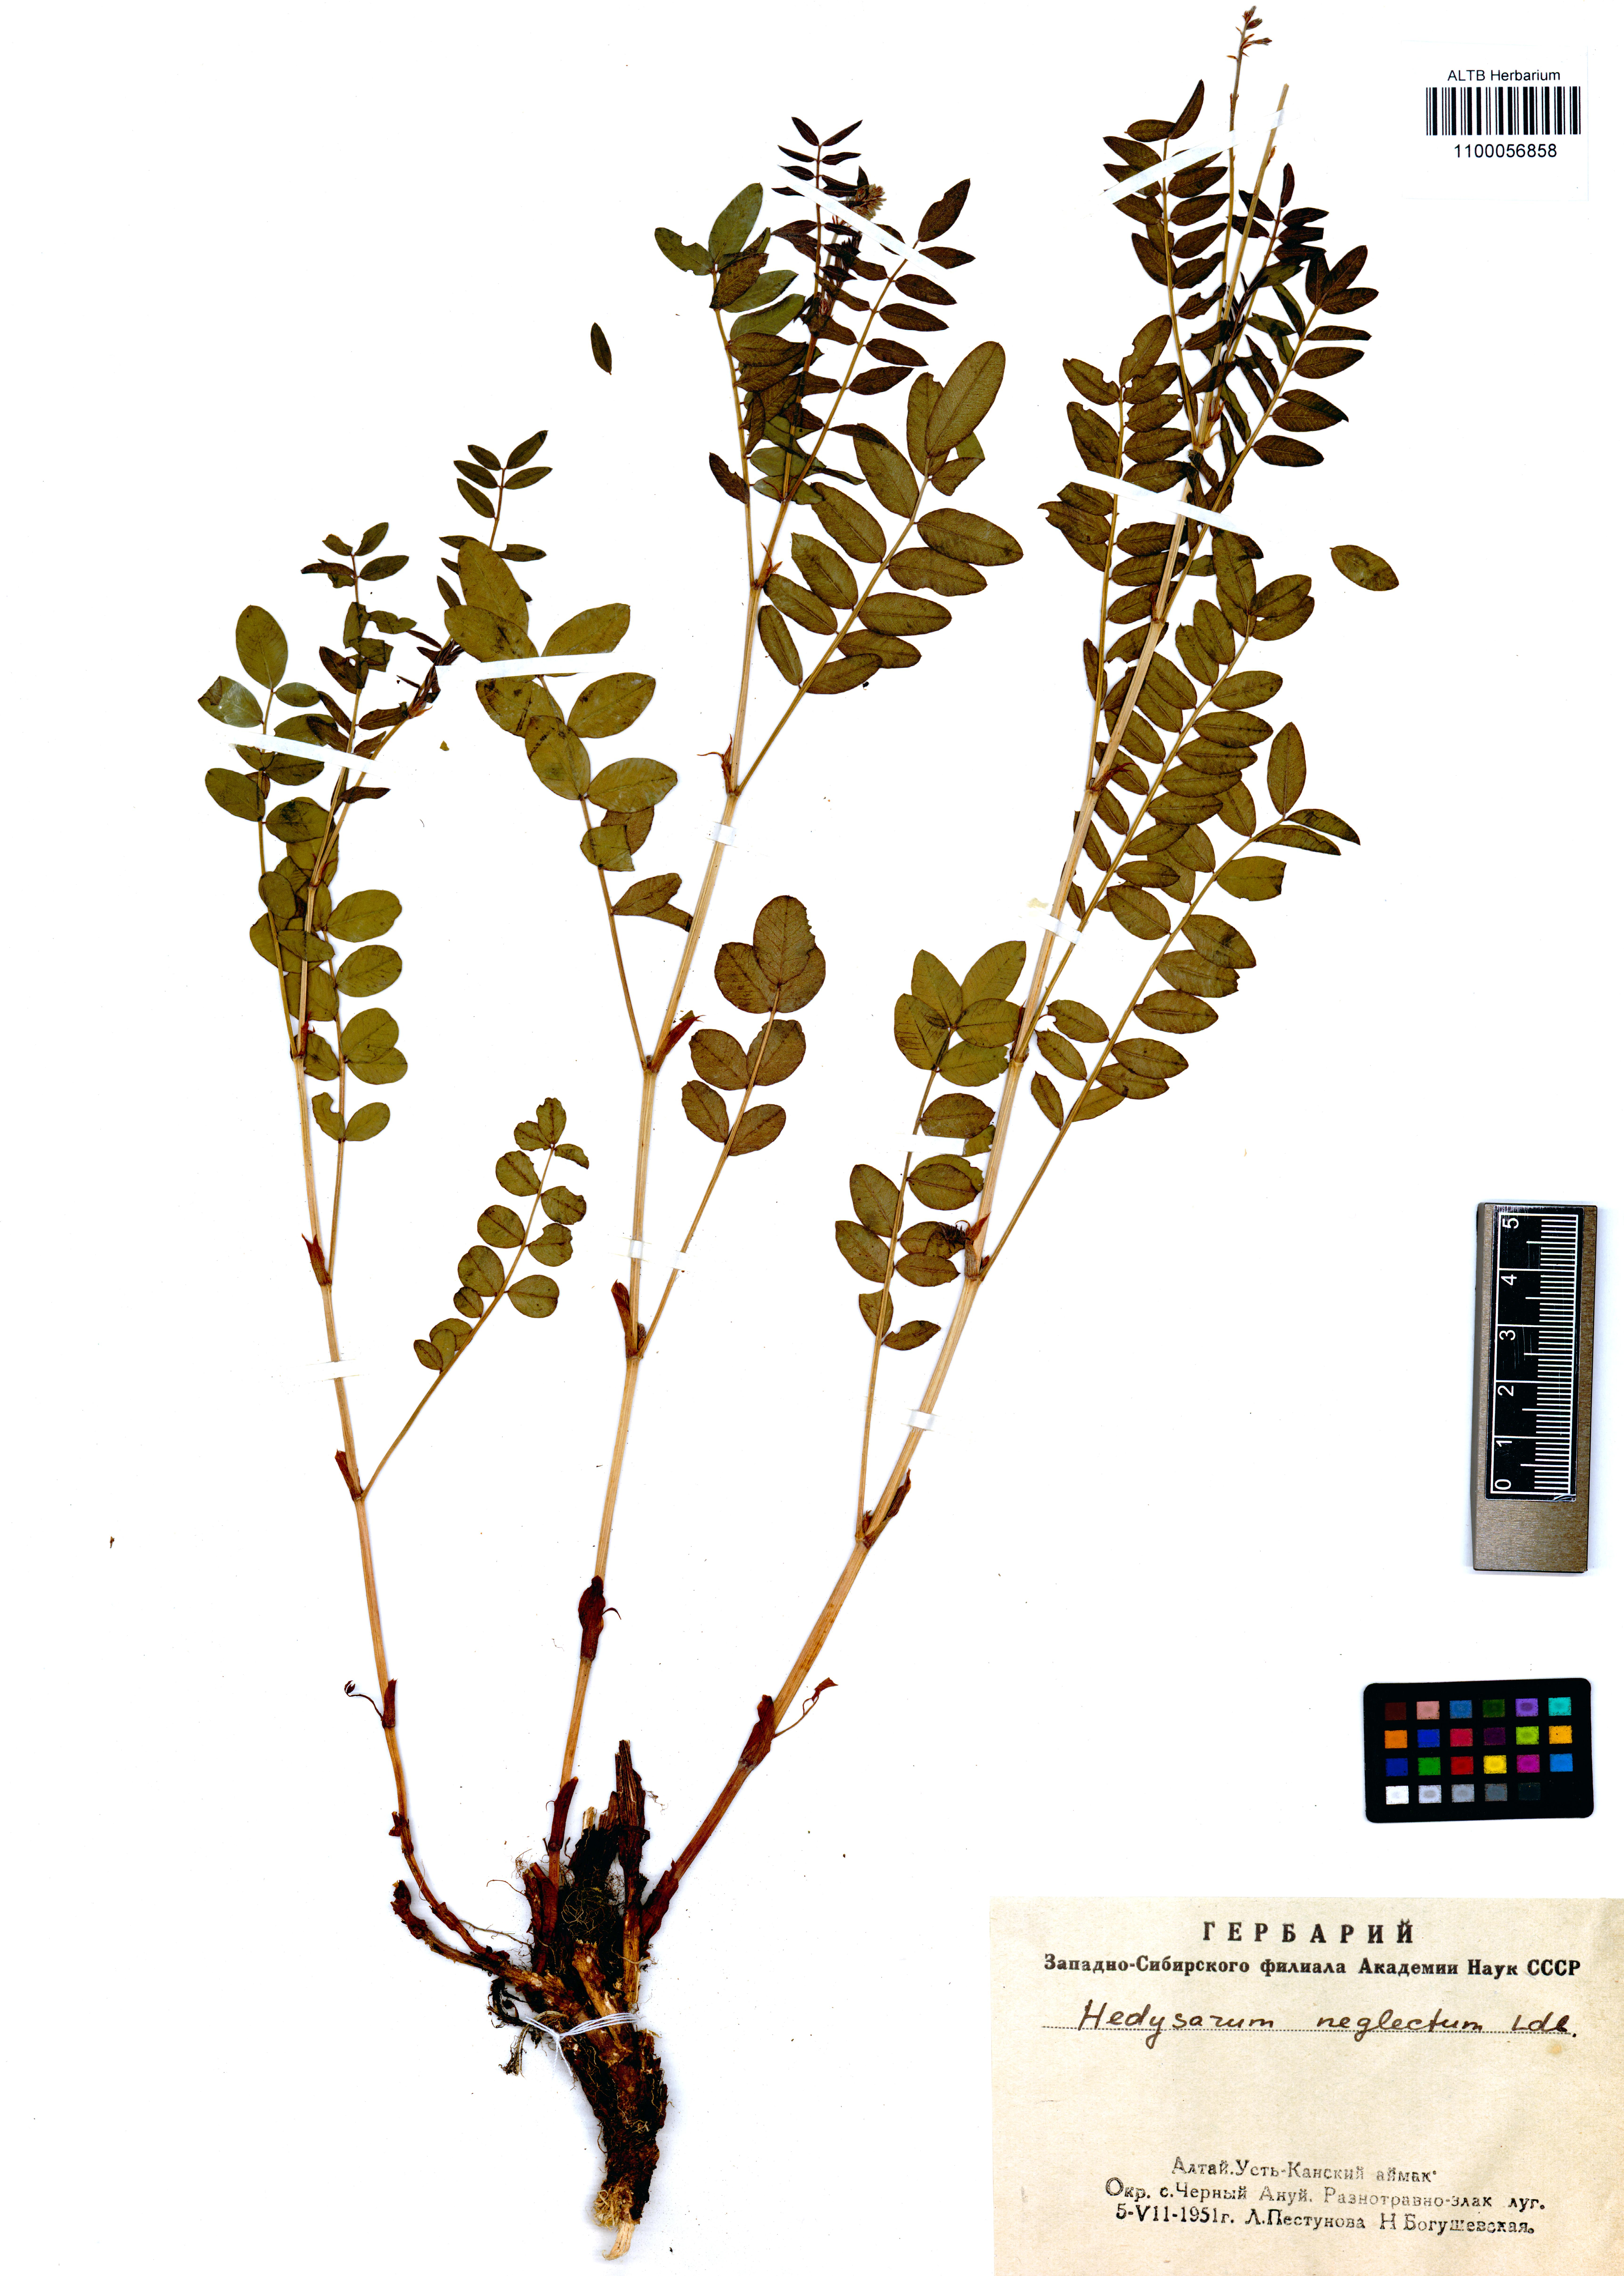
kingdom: Plantae
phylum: Tracheophyta
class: Magnoliopsida
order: Fabales
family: Fabaceae
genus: Hedysarum
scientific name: Hedysarum neglectum
